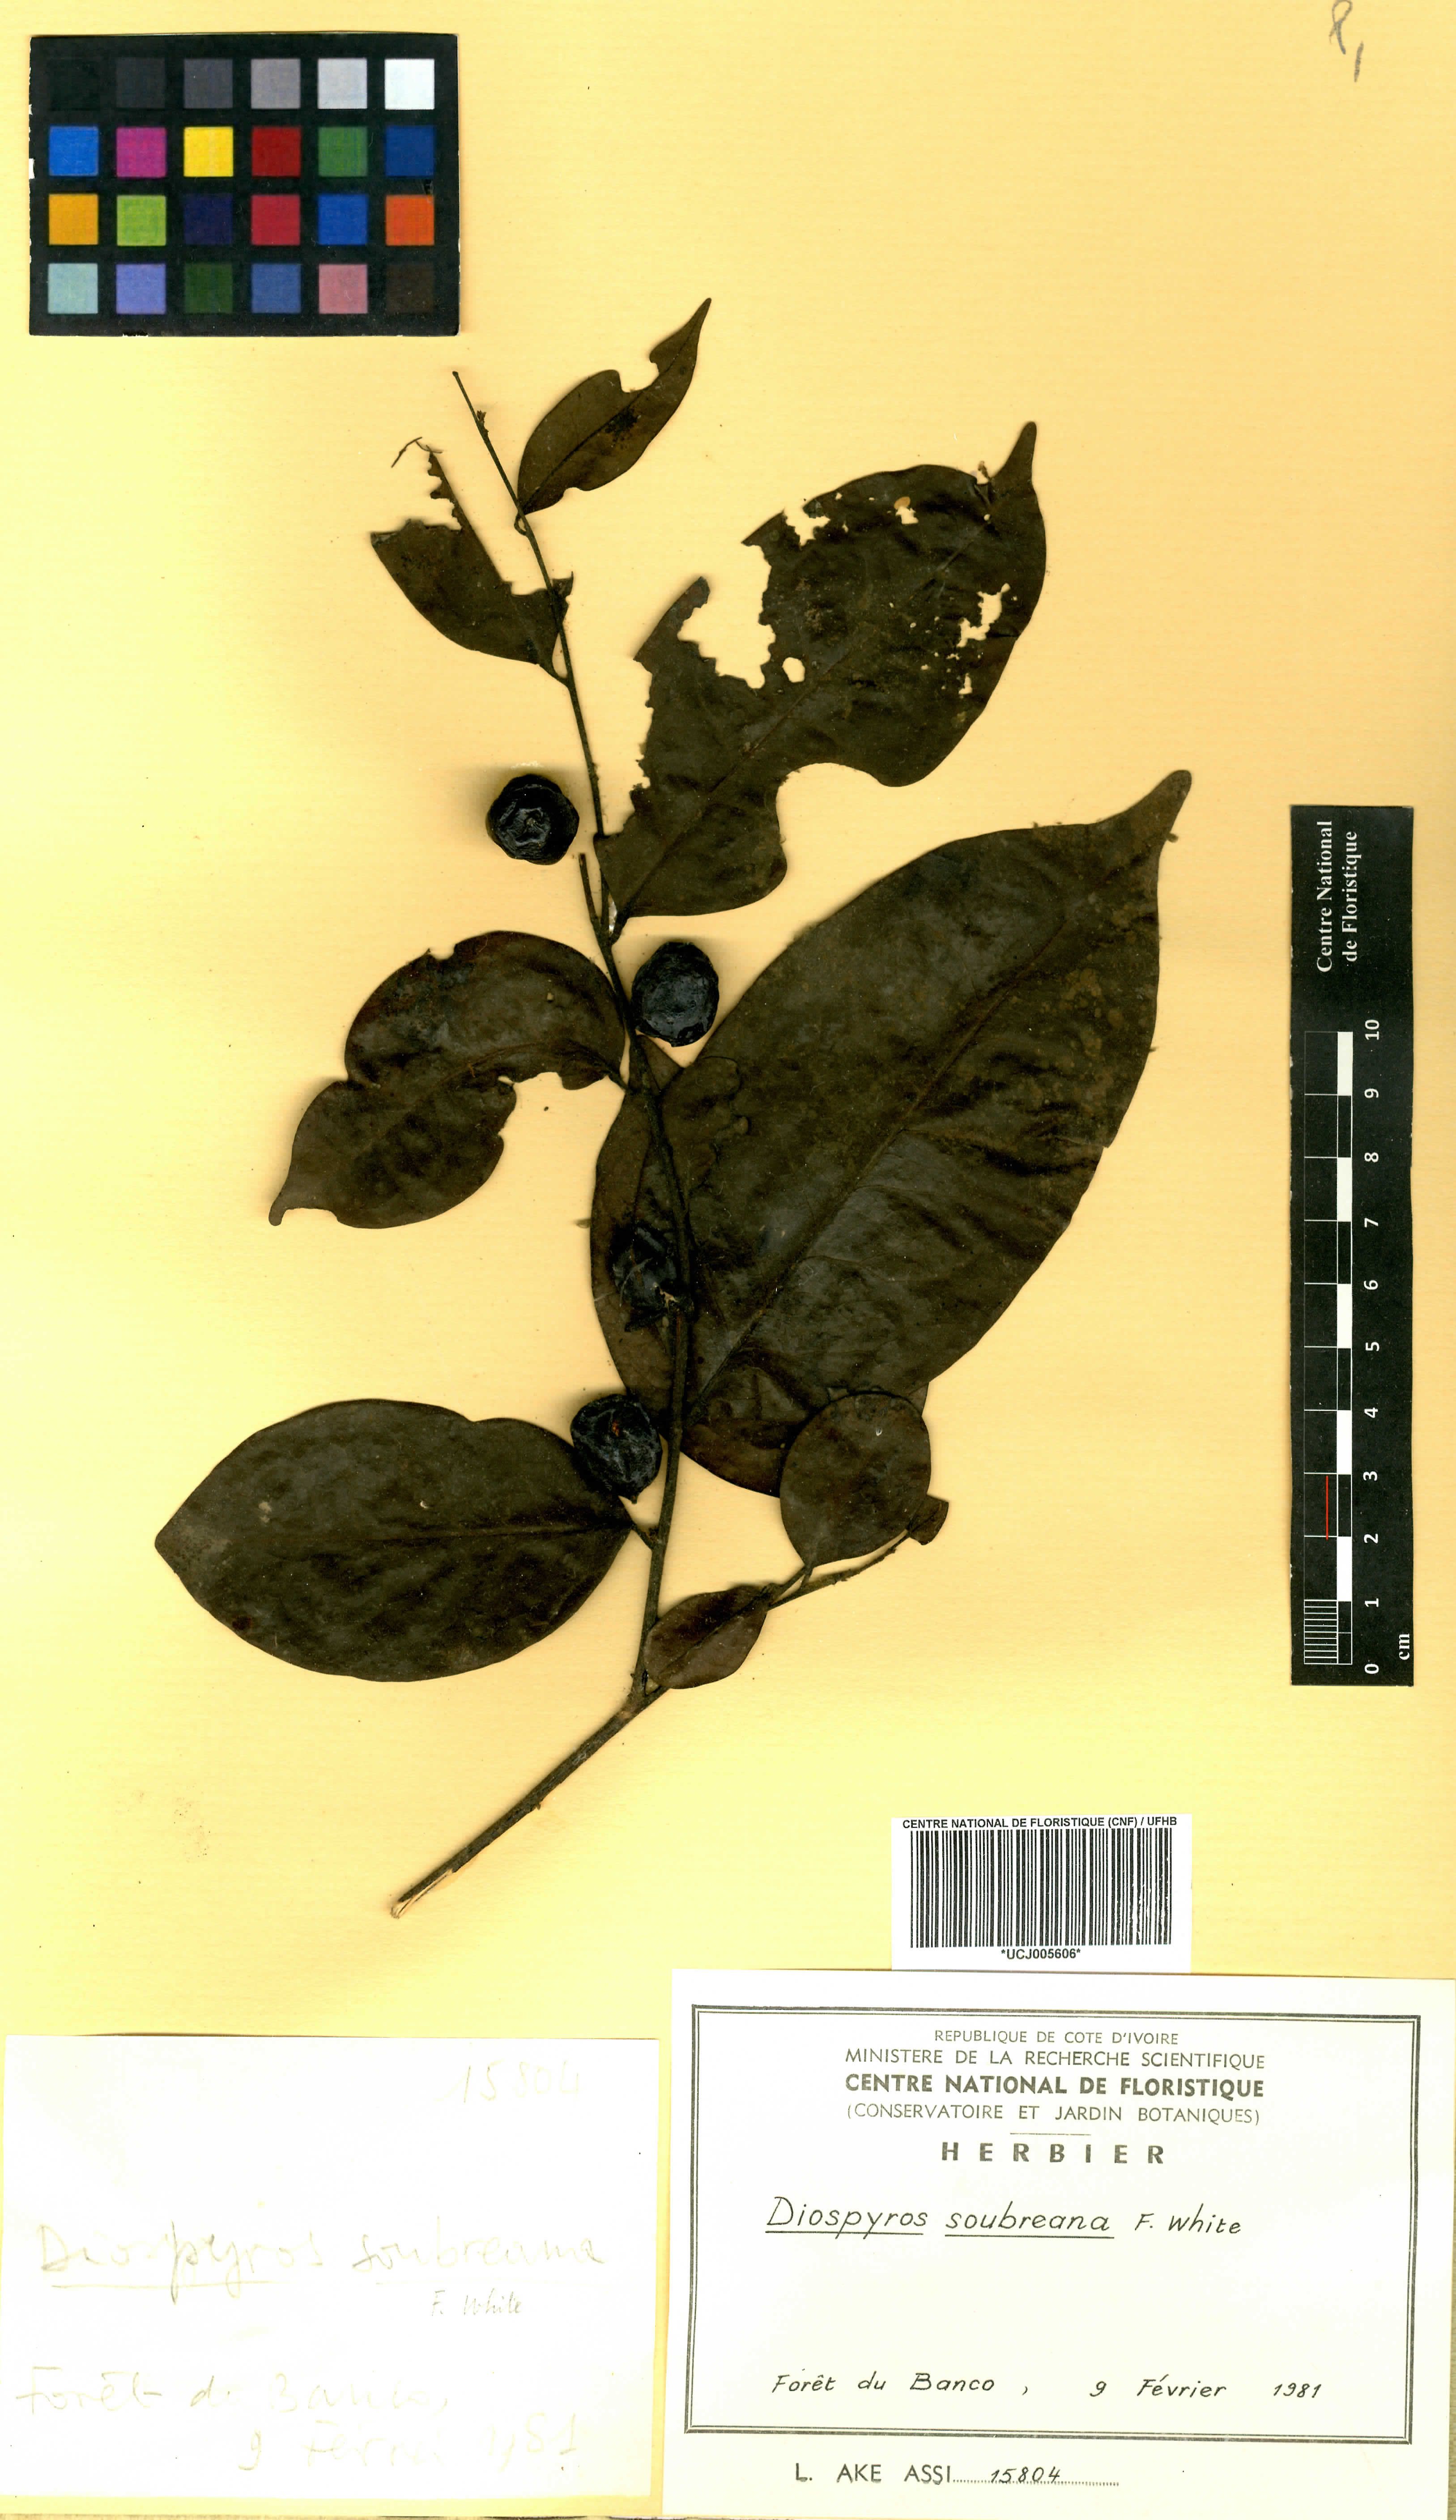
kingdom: Plantae
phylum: Tracheophyta
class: Magnoliopsida
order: Ericales
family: Ebenaceae
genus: Diospyros
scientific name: Diospyros soubreana
